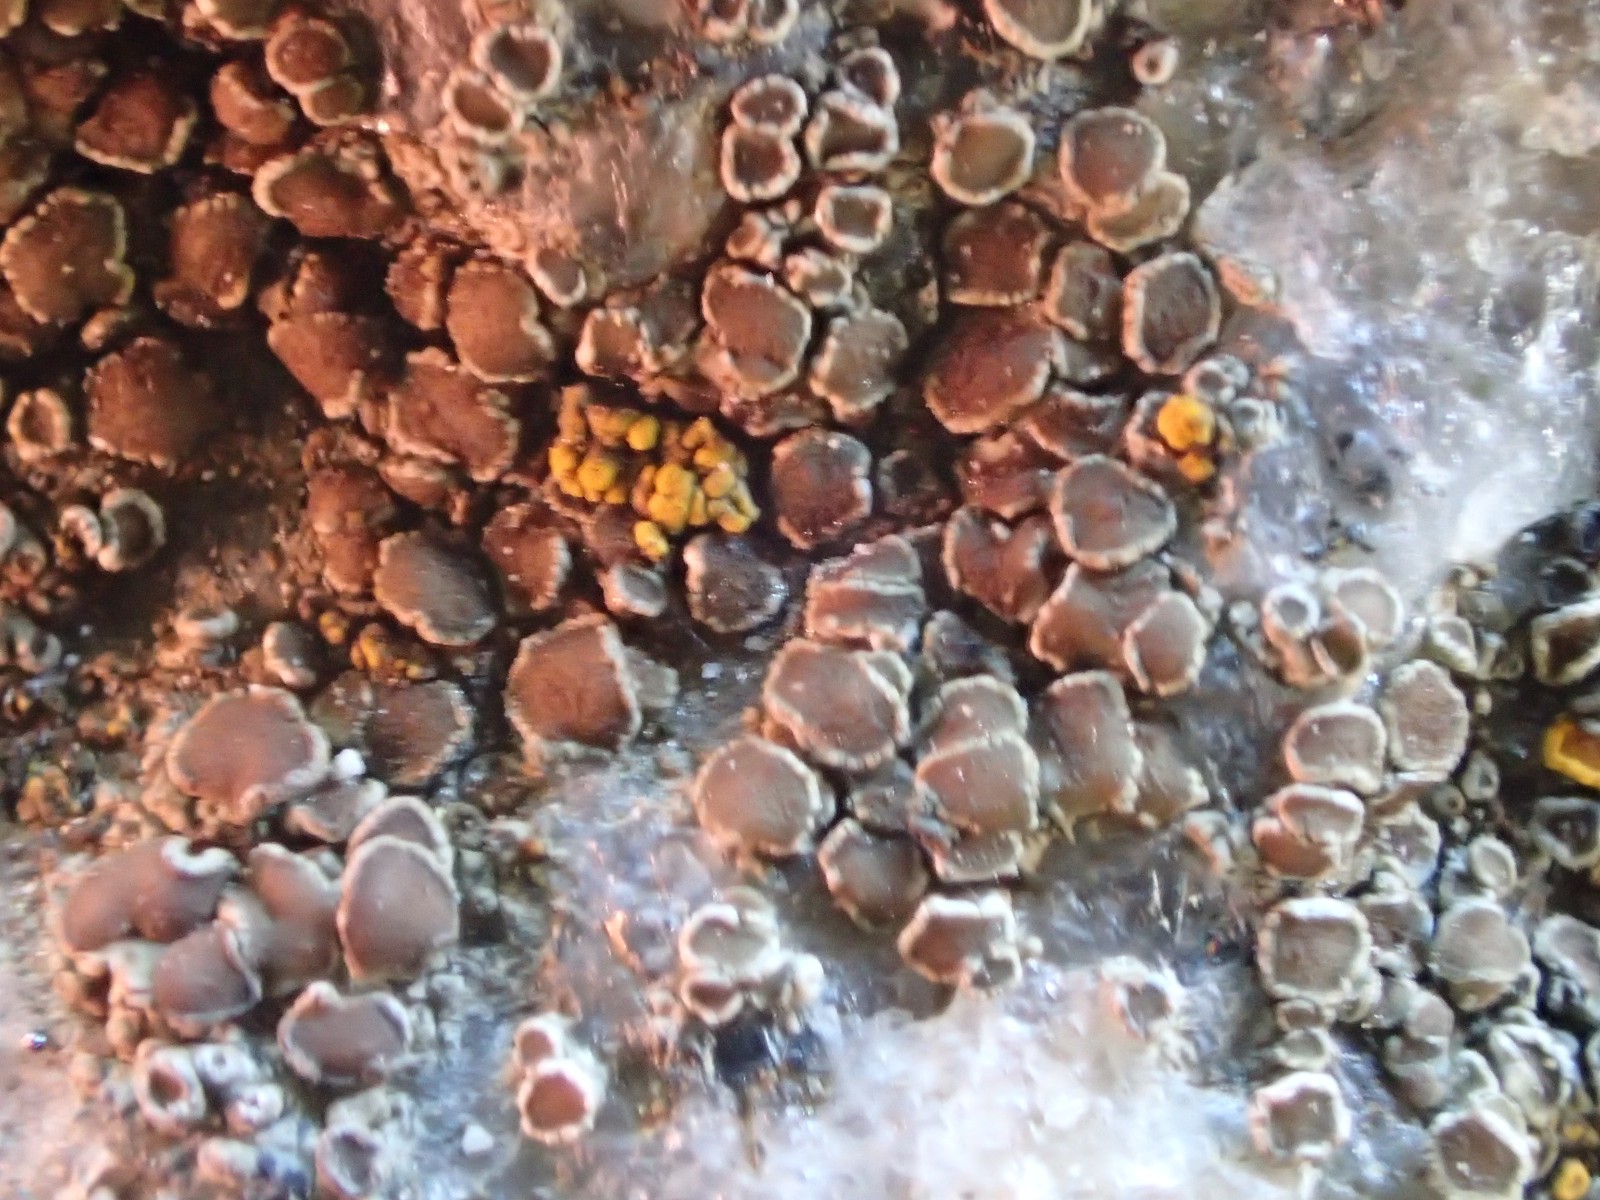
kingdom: Fungi
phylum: Ascomycota
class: Lecanoromycetes
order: Caliciales
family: Physciaceae
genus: Rinodina
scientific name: Rinodina oleae
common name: kyst-knaplav
